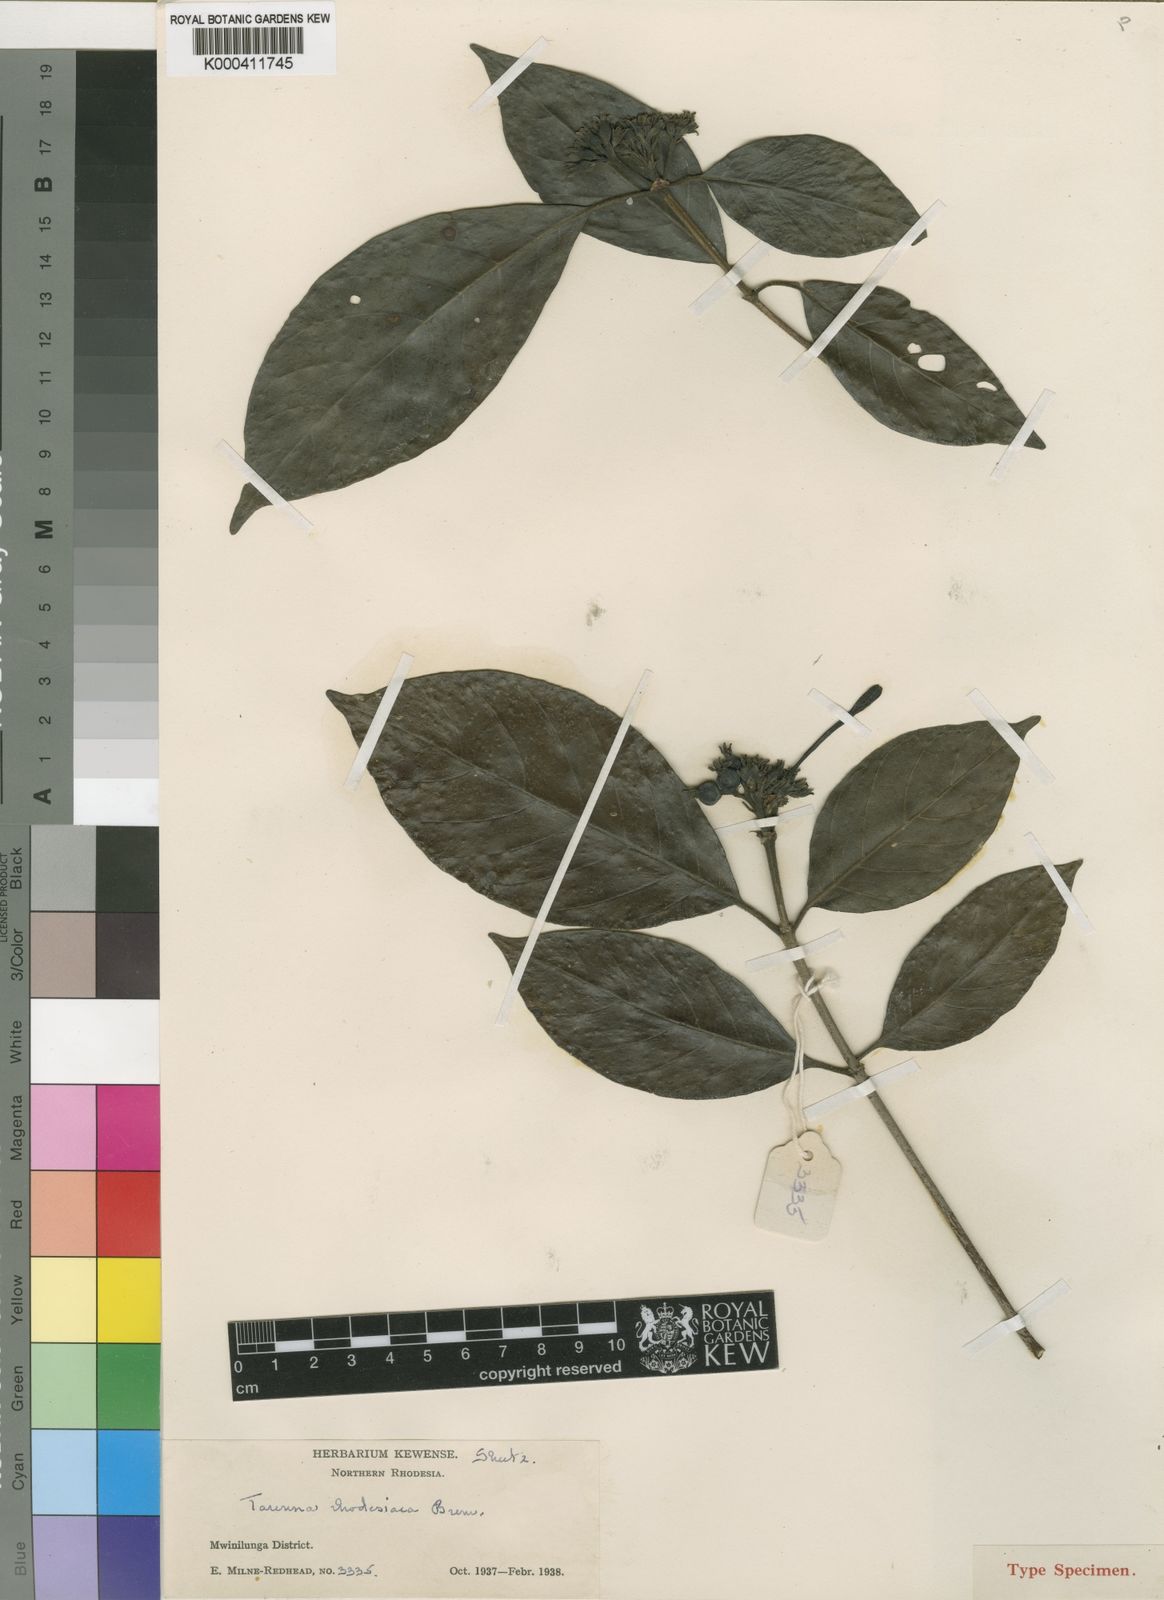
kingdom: Plantae
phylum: Tracheophyta
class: Magnoliopsida
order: Gentianales
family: Rubiaceae
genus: Tarenna
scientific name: Tarenna gossweileri
